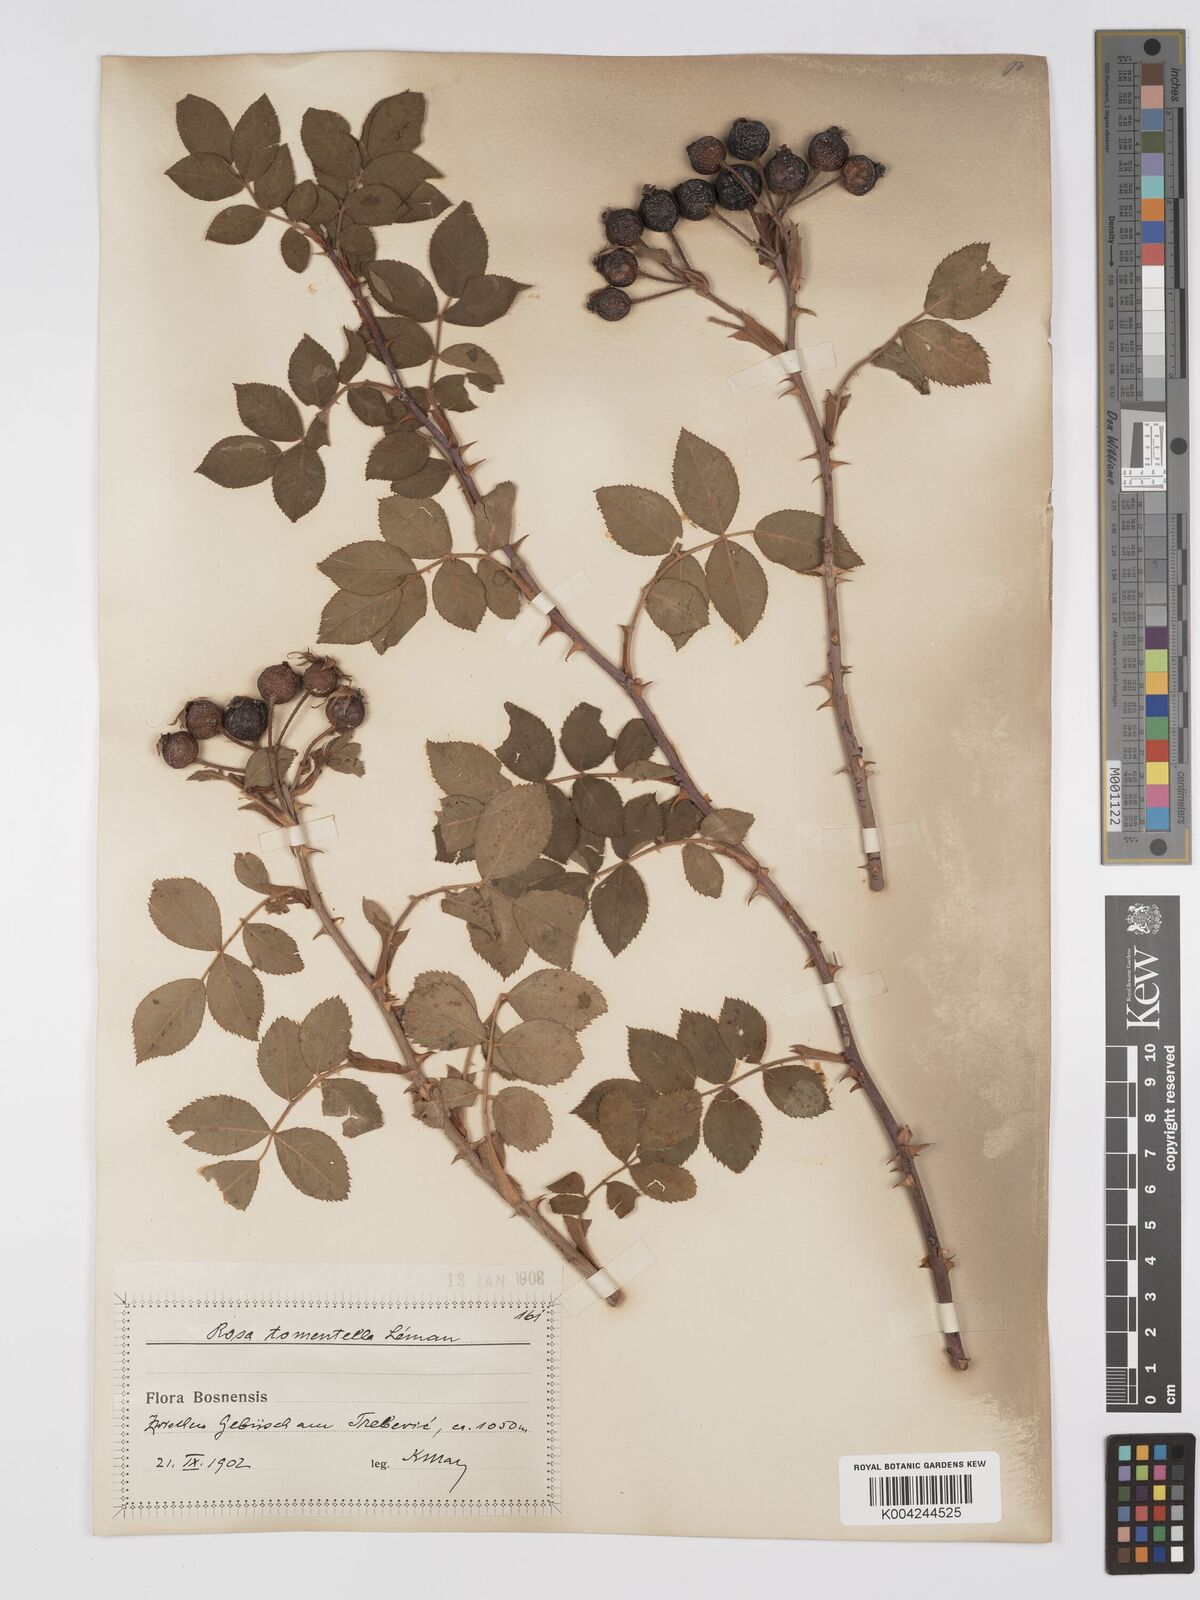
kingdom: Plantae
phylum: Tracheophyta
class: Magnoliopsida
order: Rosales
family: Rosaceae
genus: Rosa
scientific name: Rosa
